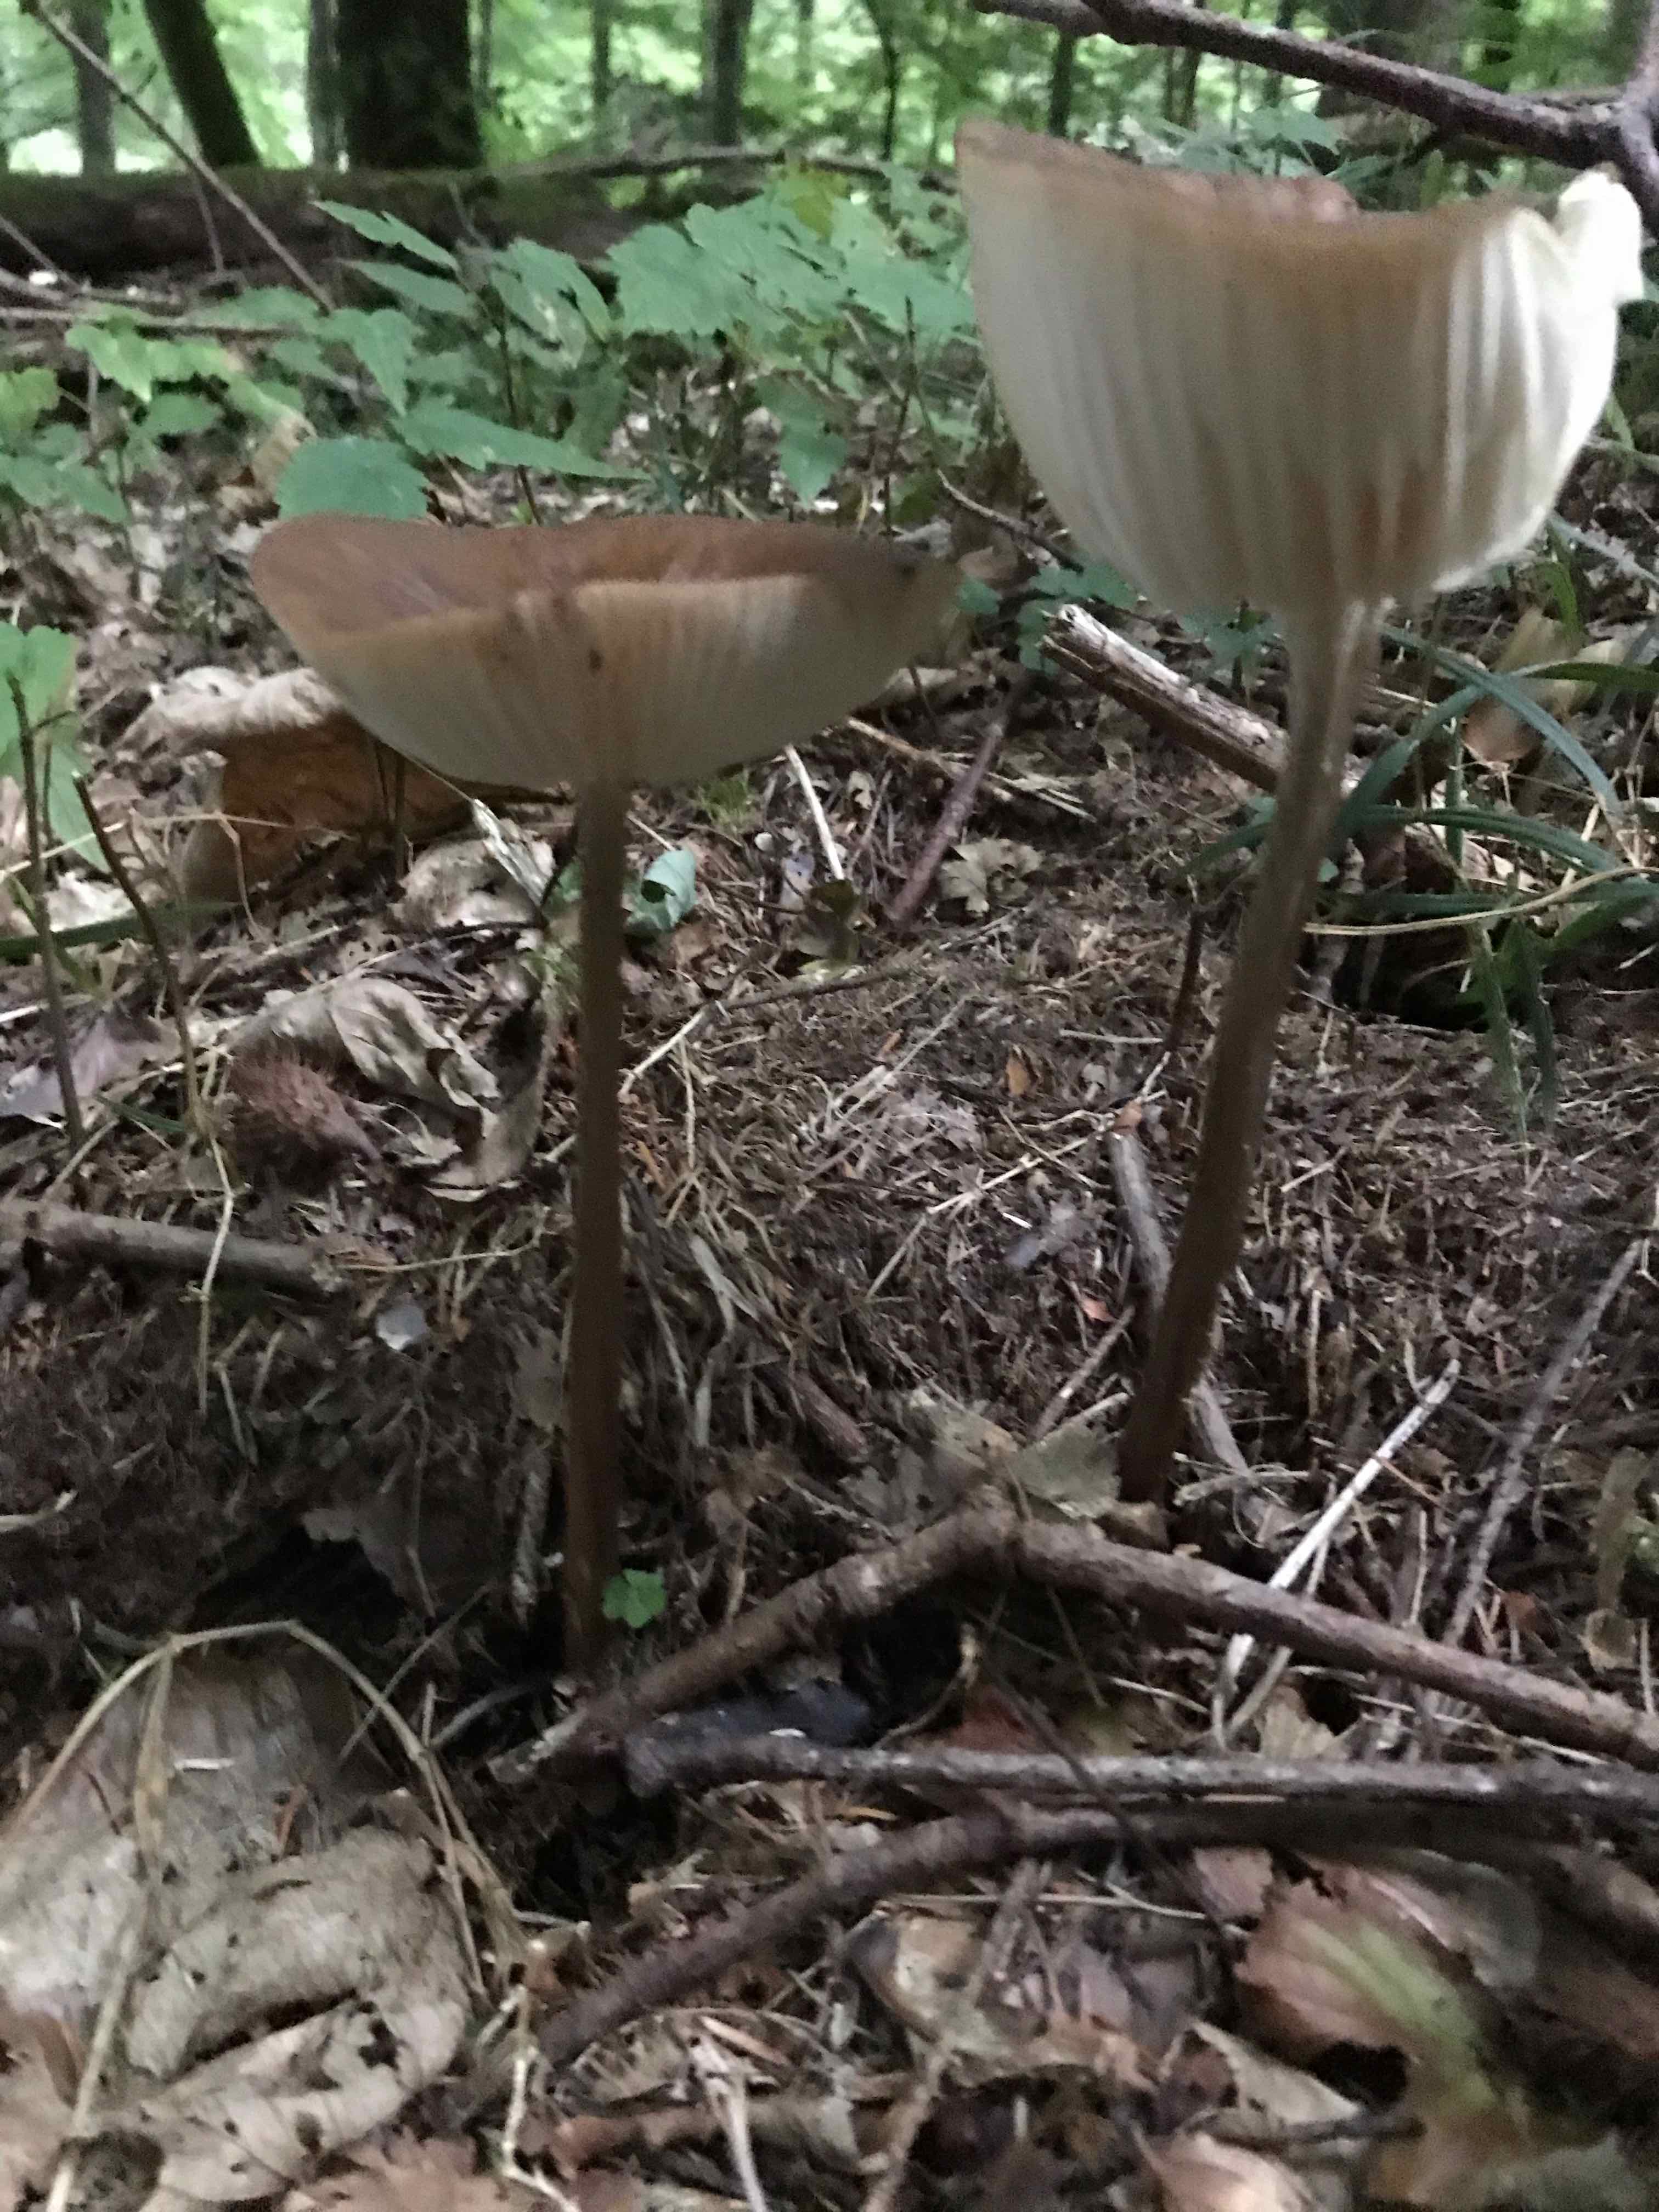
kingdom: Fungi
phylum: Basidiomycota
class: Agaricomycetes
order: Agaricales
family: Physalacriaceae
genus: Hymenopellis
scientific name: Hymenopellis radicata
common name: almindelig pælerodshat
